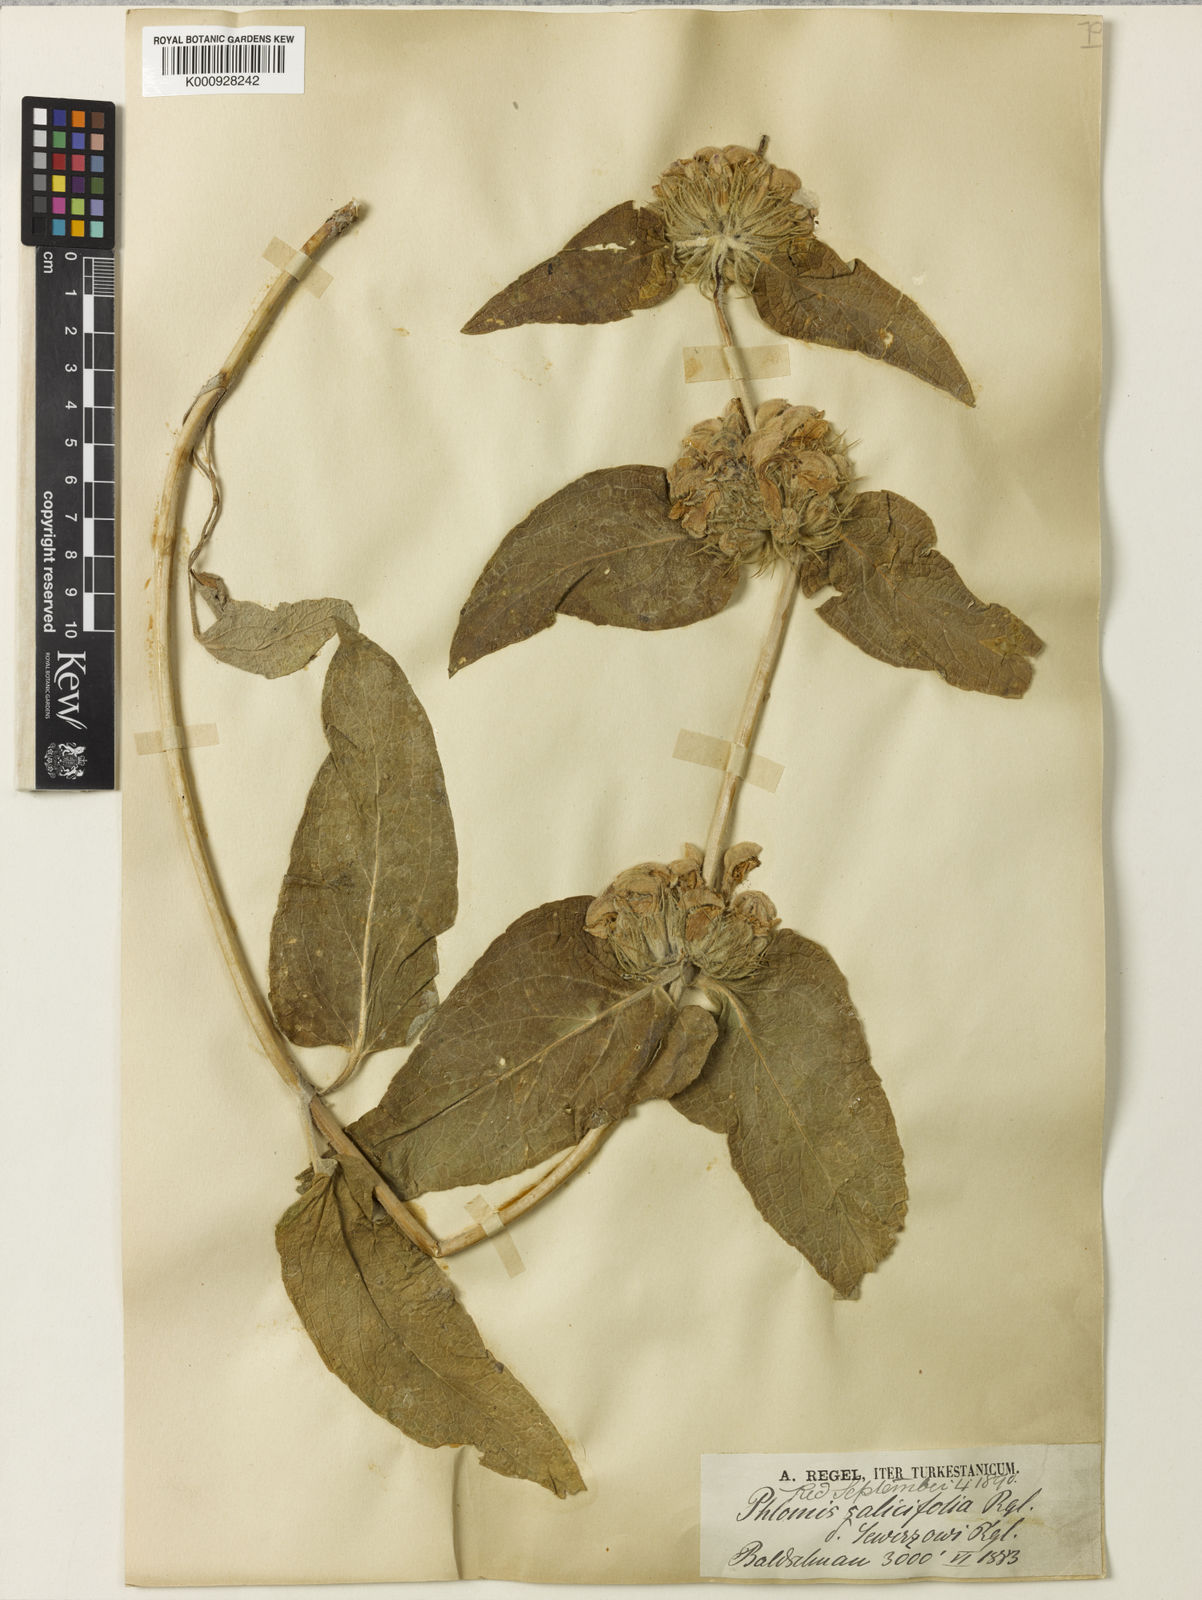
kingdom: Plantae
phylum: Tracheophyta
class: Magnoliopsida
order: Lamiales
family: Lamiaceae
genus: Phlomis
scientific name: Phlomis sewerzowii
